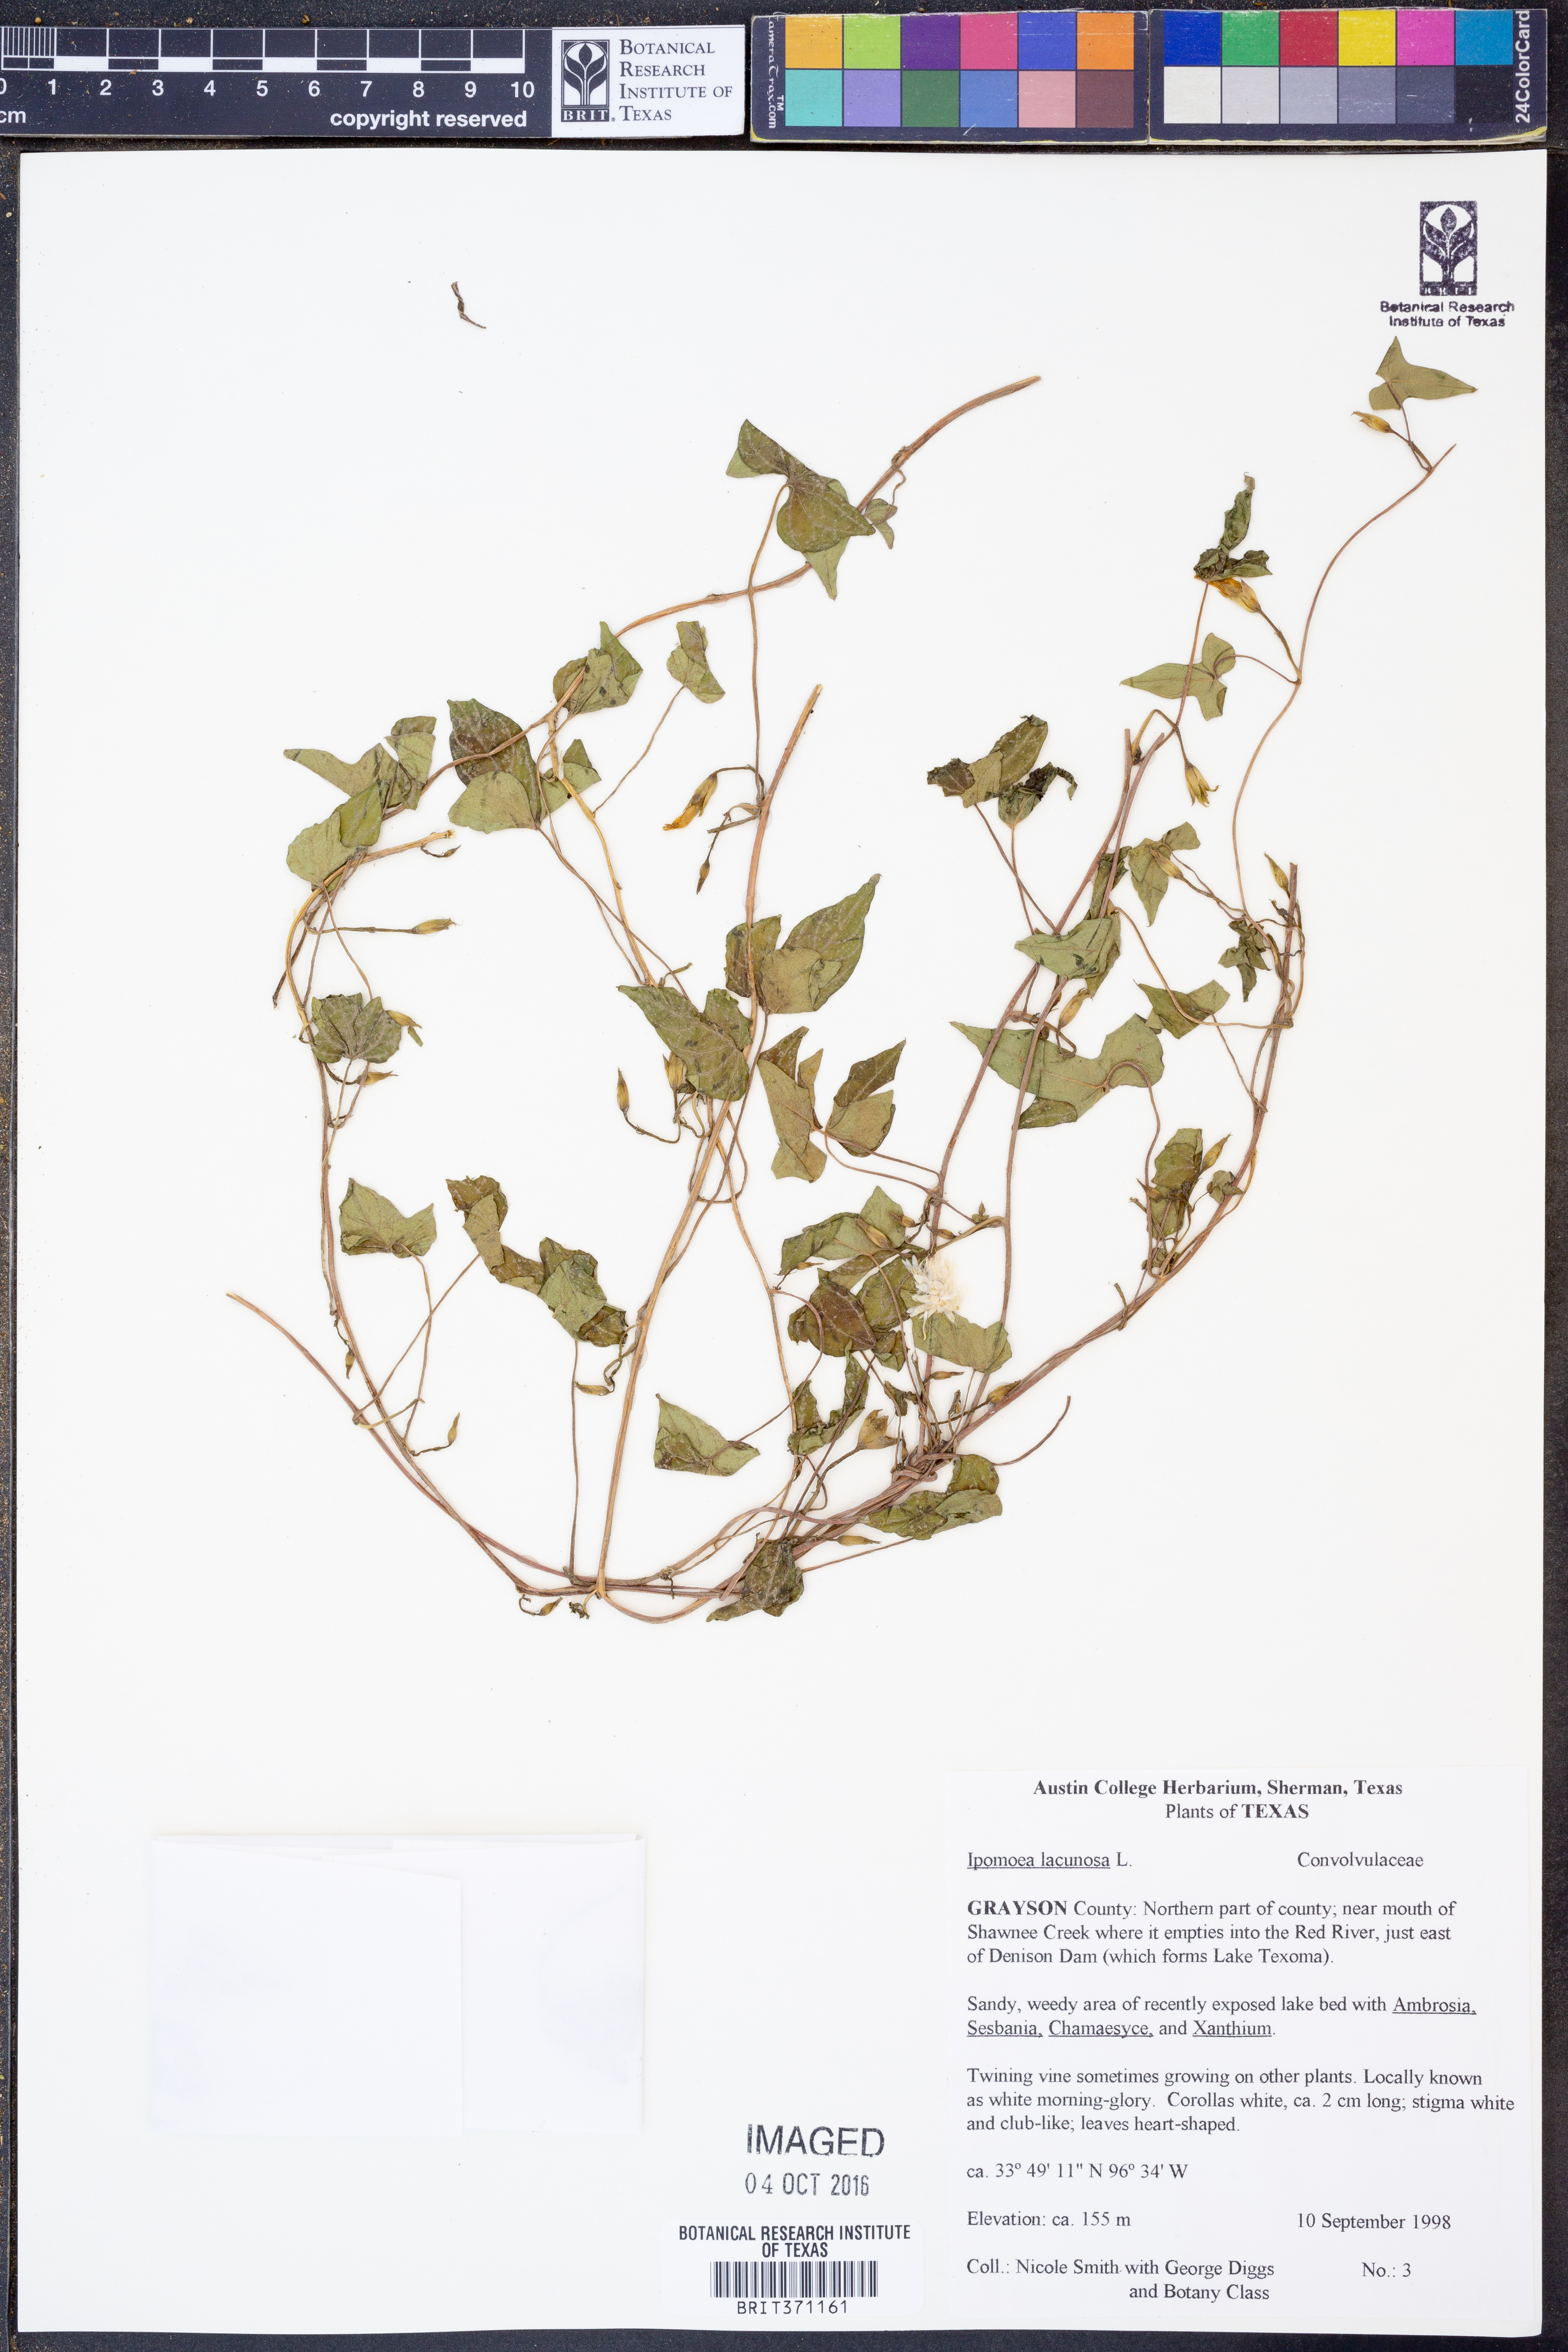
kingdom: Plantae
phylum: Tracheophyta
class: Magnoliopsida
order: Solanales
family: Convolvulaceae
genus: Ipomoea
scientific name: Ipomoea lacunosa
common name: White morning-glory
